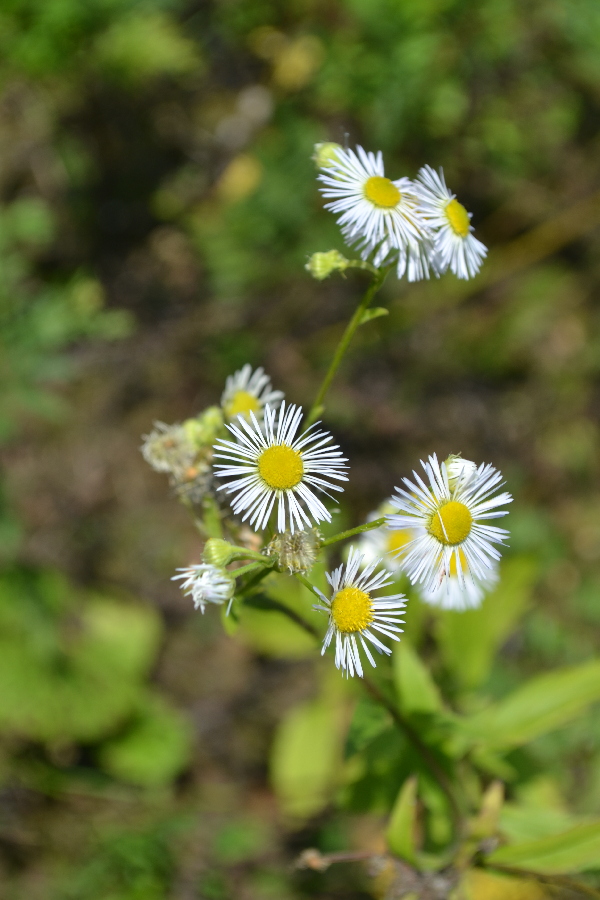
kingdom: Plantae
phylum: Tracheophyta
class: Magnoliopsida
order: Asterales
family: Asteraceae
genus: Erigeron
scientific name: Erigeron annuus
